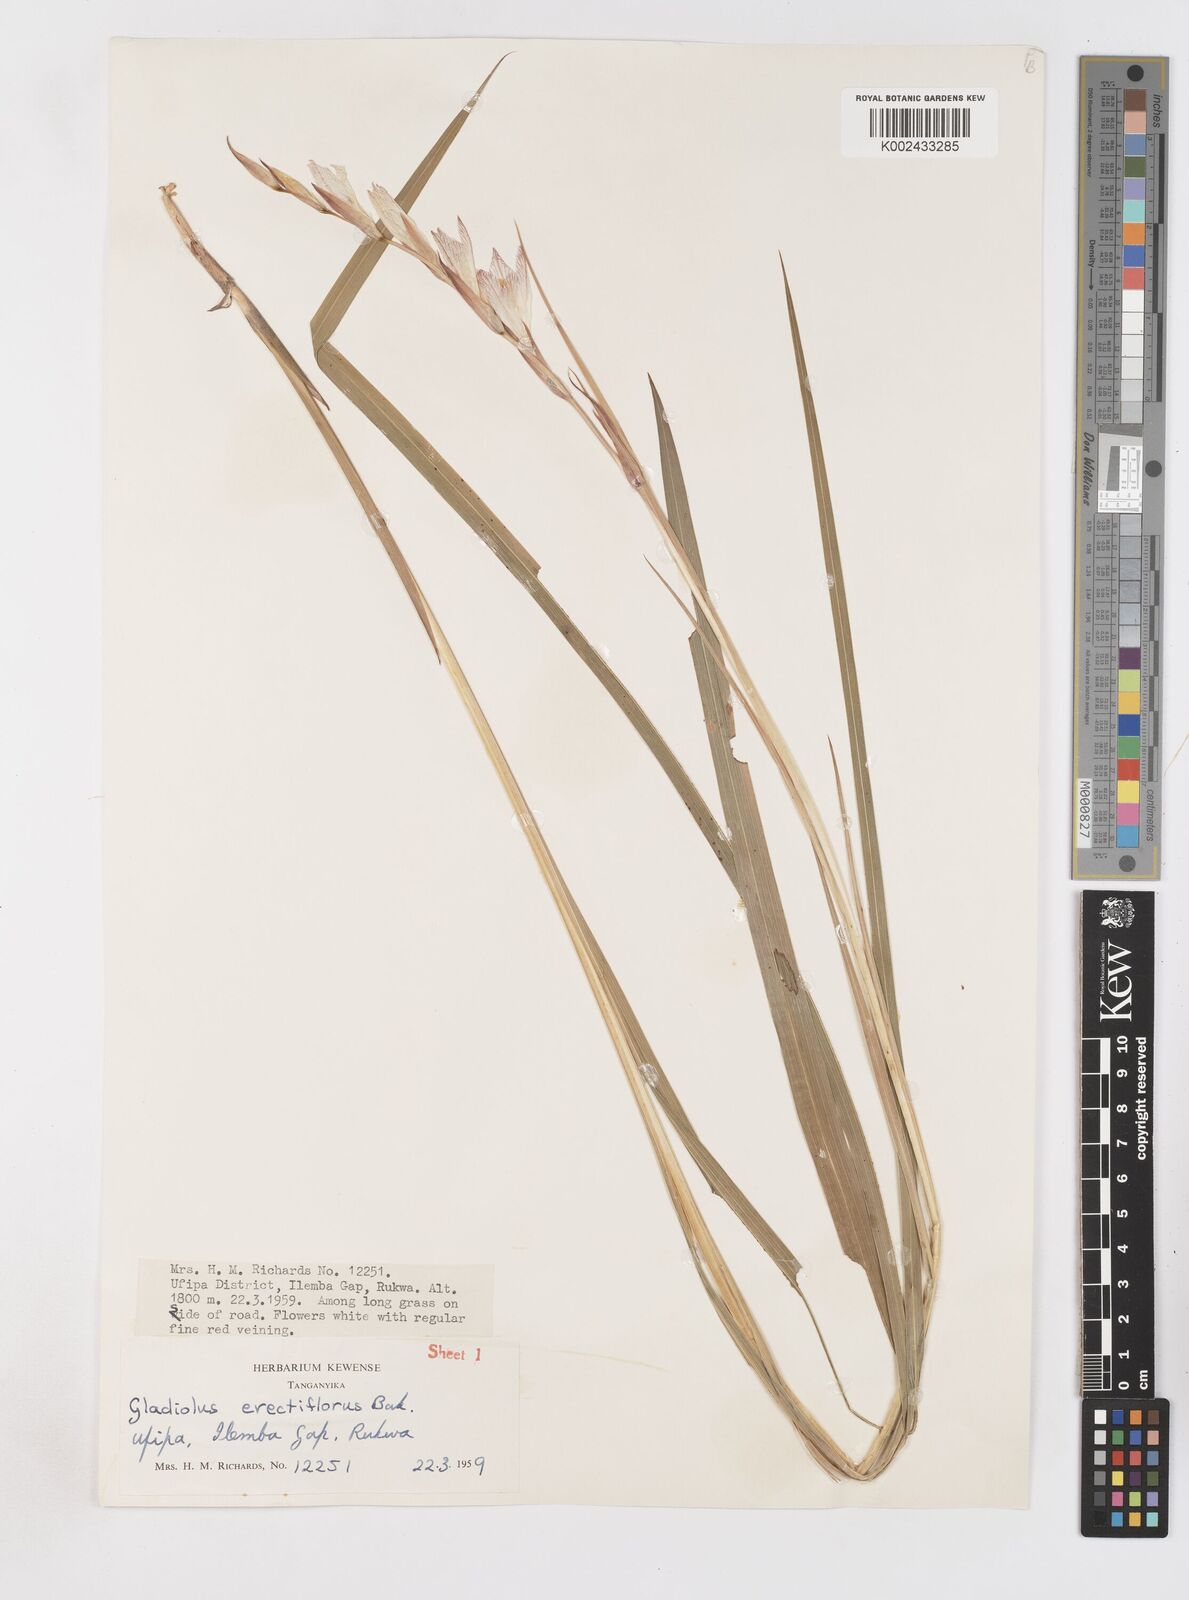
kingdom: Plantae
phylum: Tracheophyta
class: Liliopsida
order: Asparagales
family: Iridaceae
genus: Gladiolus
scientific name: Gladiolus erectiflorus
